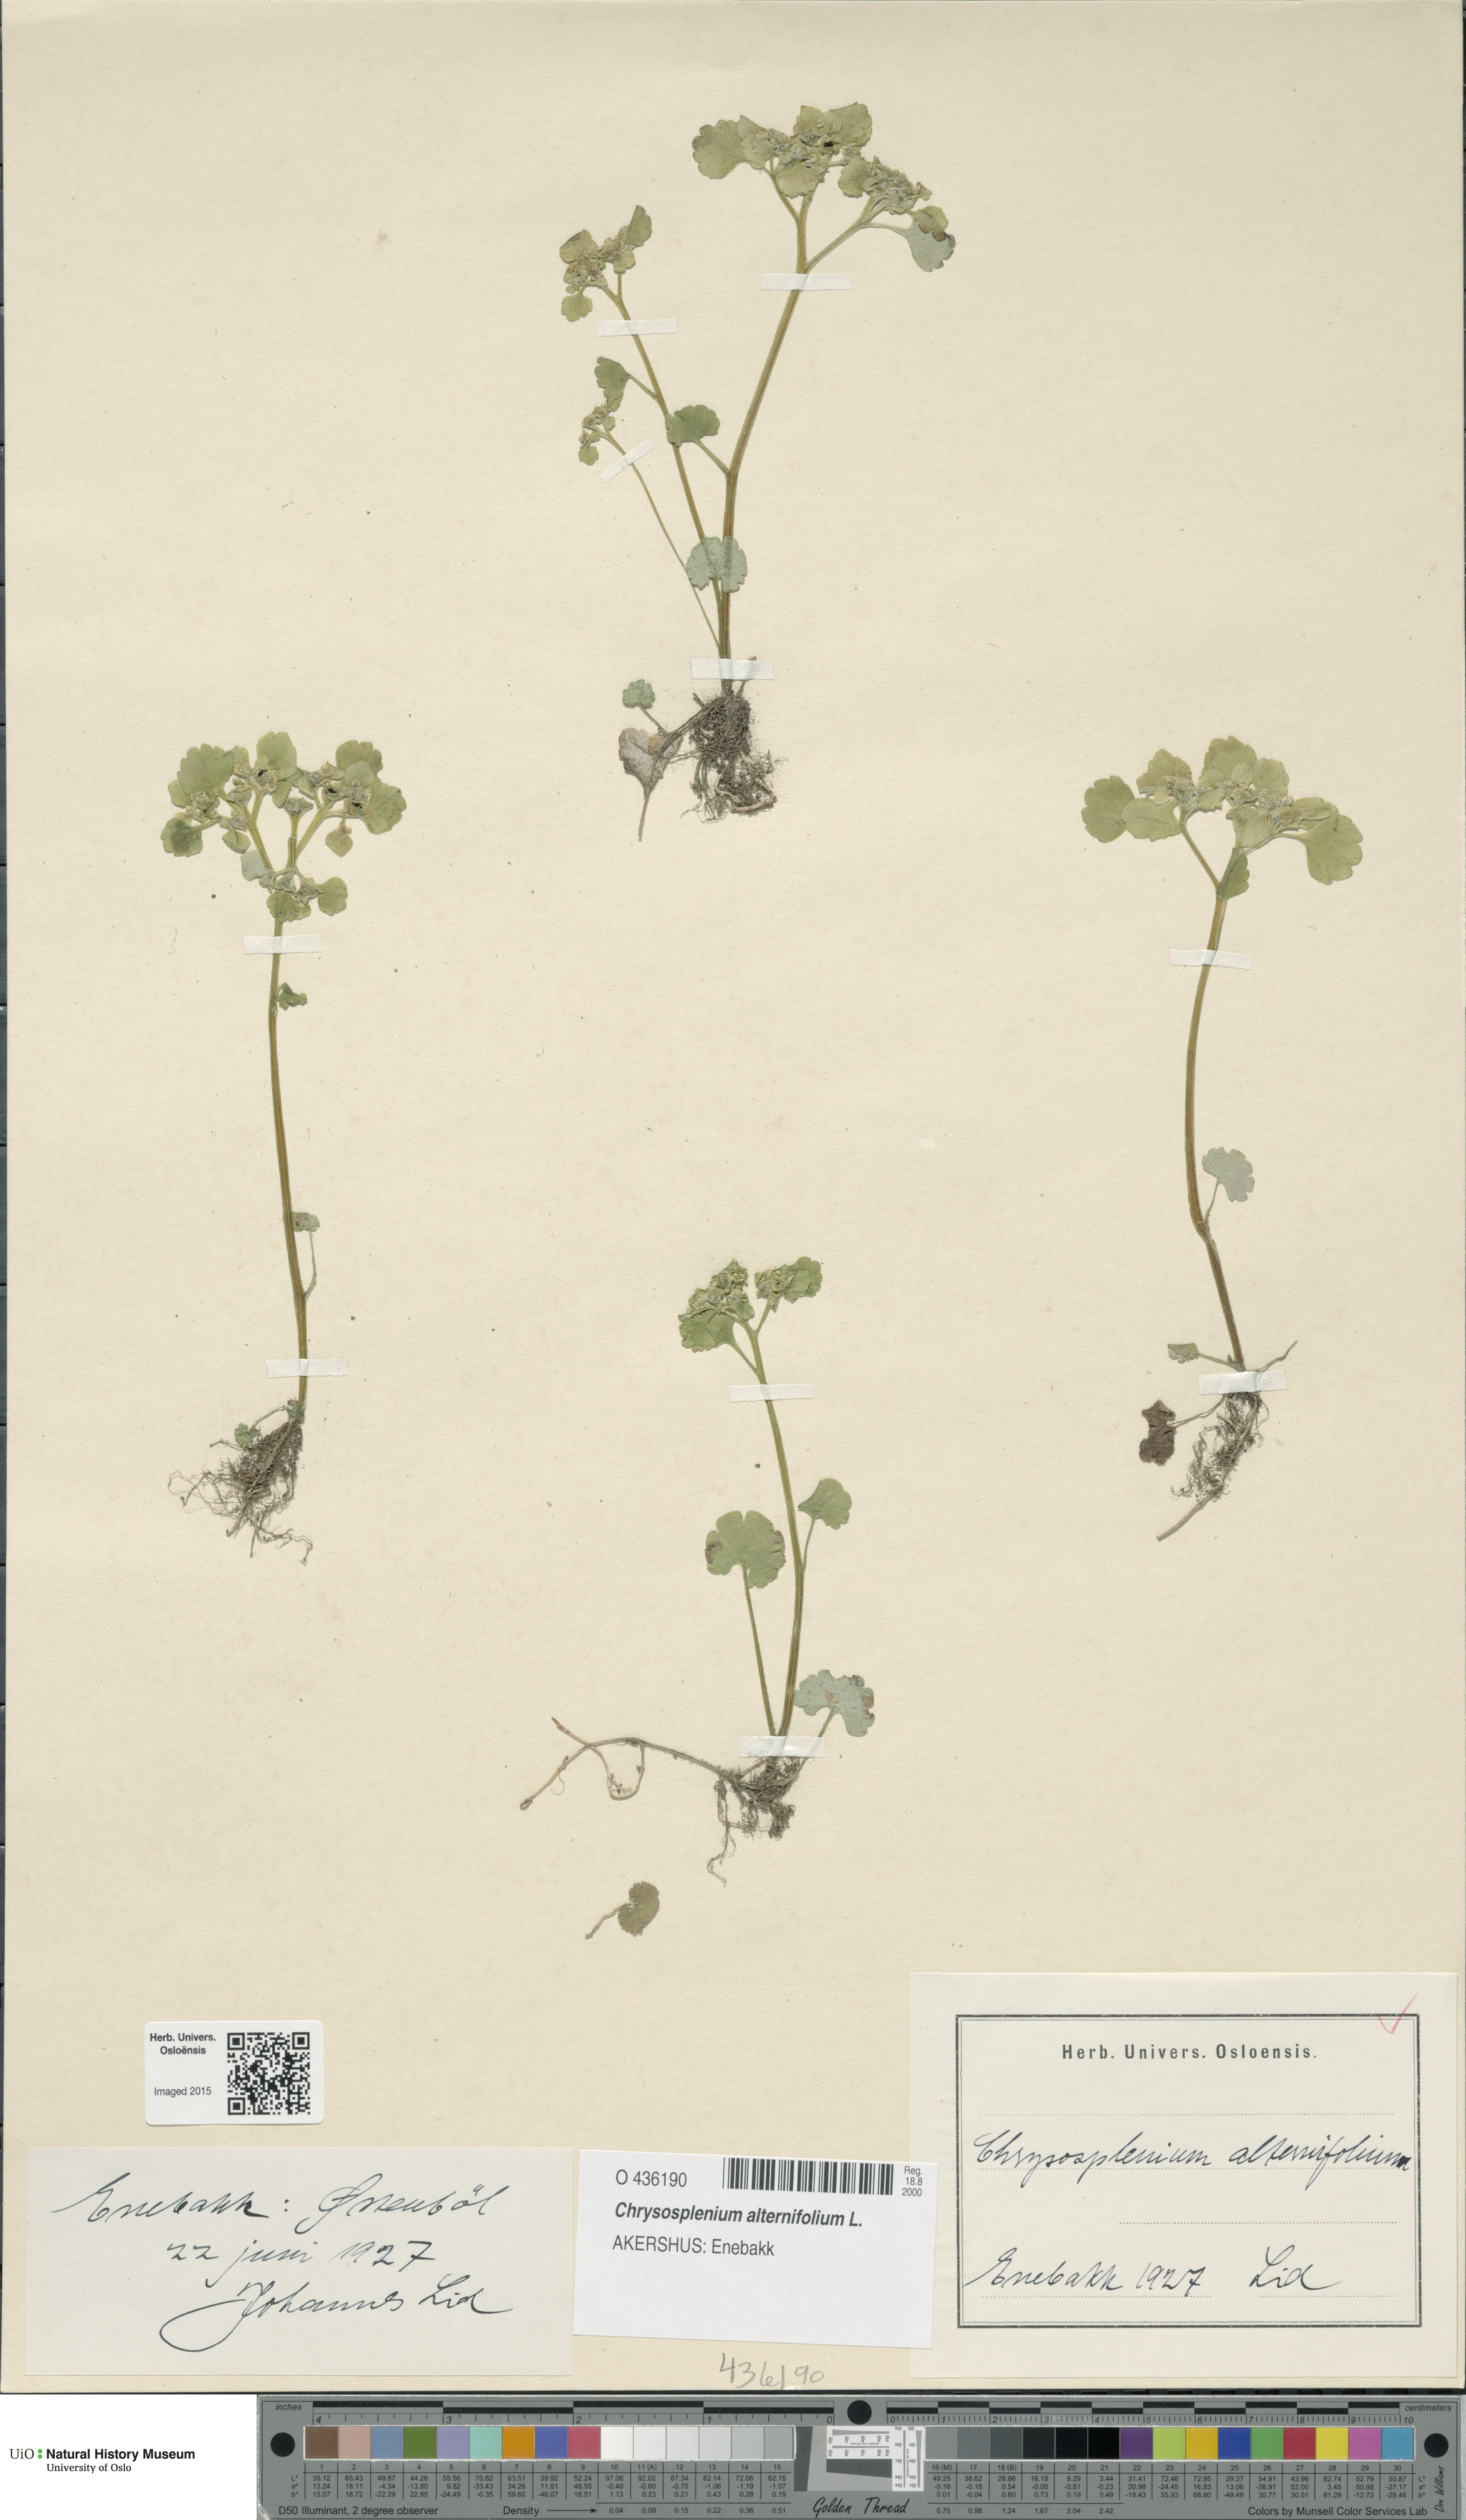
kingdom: Plantae
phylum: Tracheophyta
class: Magnoliopsida
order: Saxifragales
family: Saxifragaceae
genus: Chrysosplenium
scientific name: Chrysosplenium alternifolium
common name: Alternate-leaved golden-saxifrage
